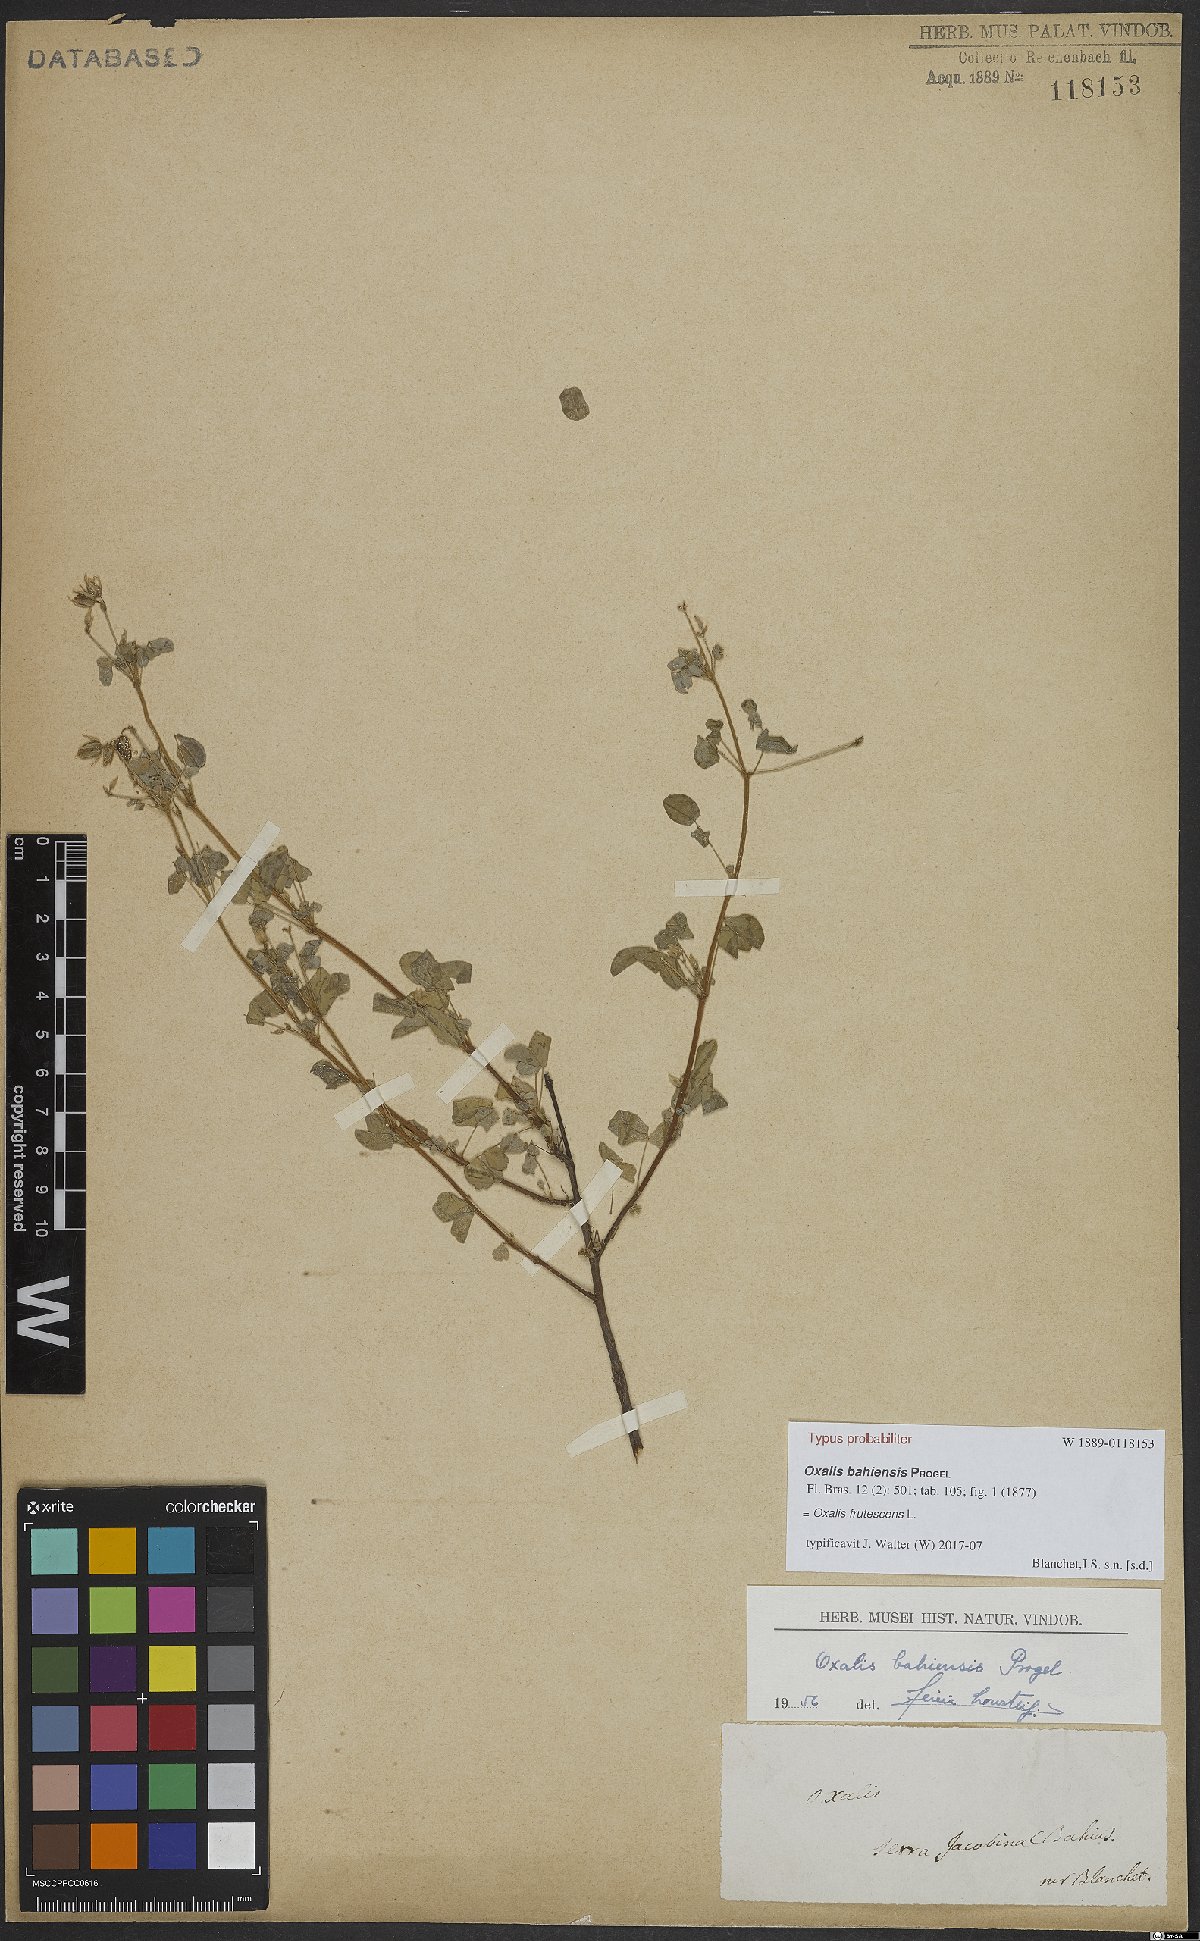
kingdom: Plantae
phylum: Tracheophyta
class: Magnoliopsida
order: Oxalidales
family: Oxalidaceae
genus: Oxalis
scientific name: Oxalis frutescens
